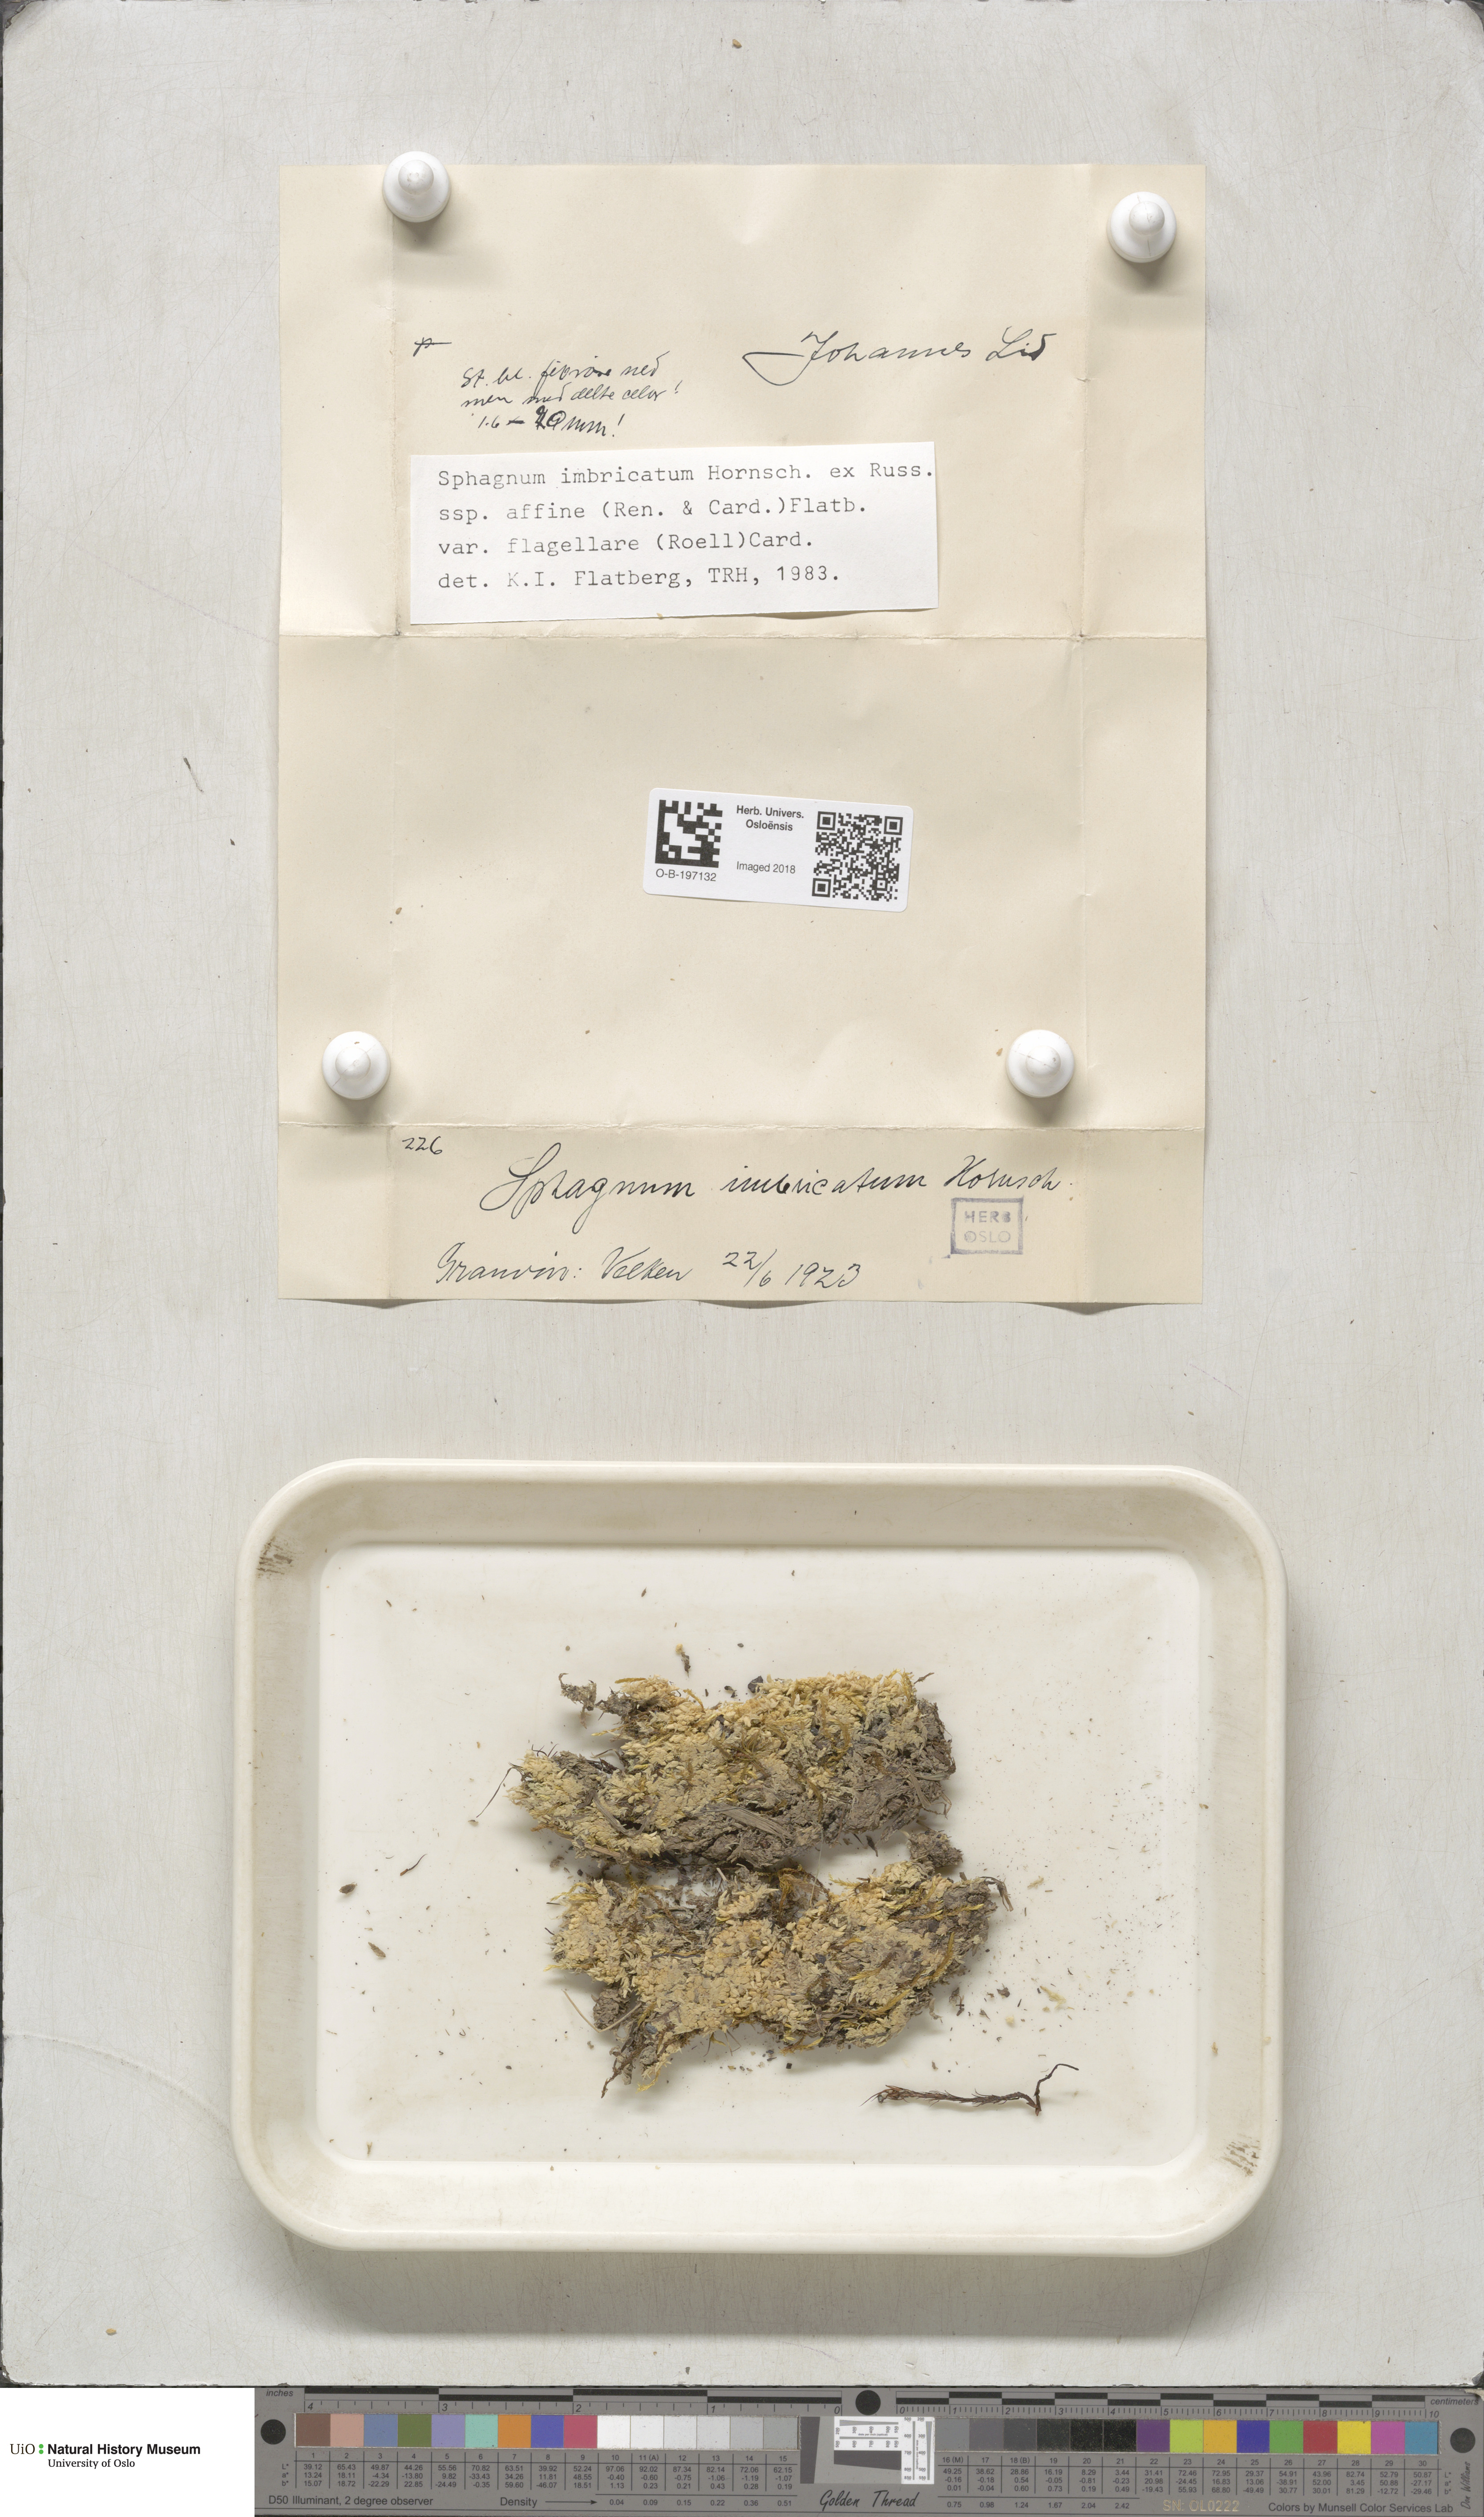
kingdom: Plantae
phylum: Bryophyta
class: Sphagnopsida
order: Sphagnales
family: Sphagnaceae
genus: Sphagnum
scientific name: Sphagnum affine
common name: Imbricate peat moss
